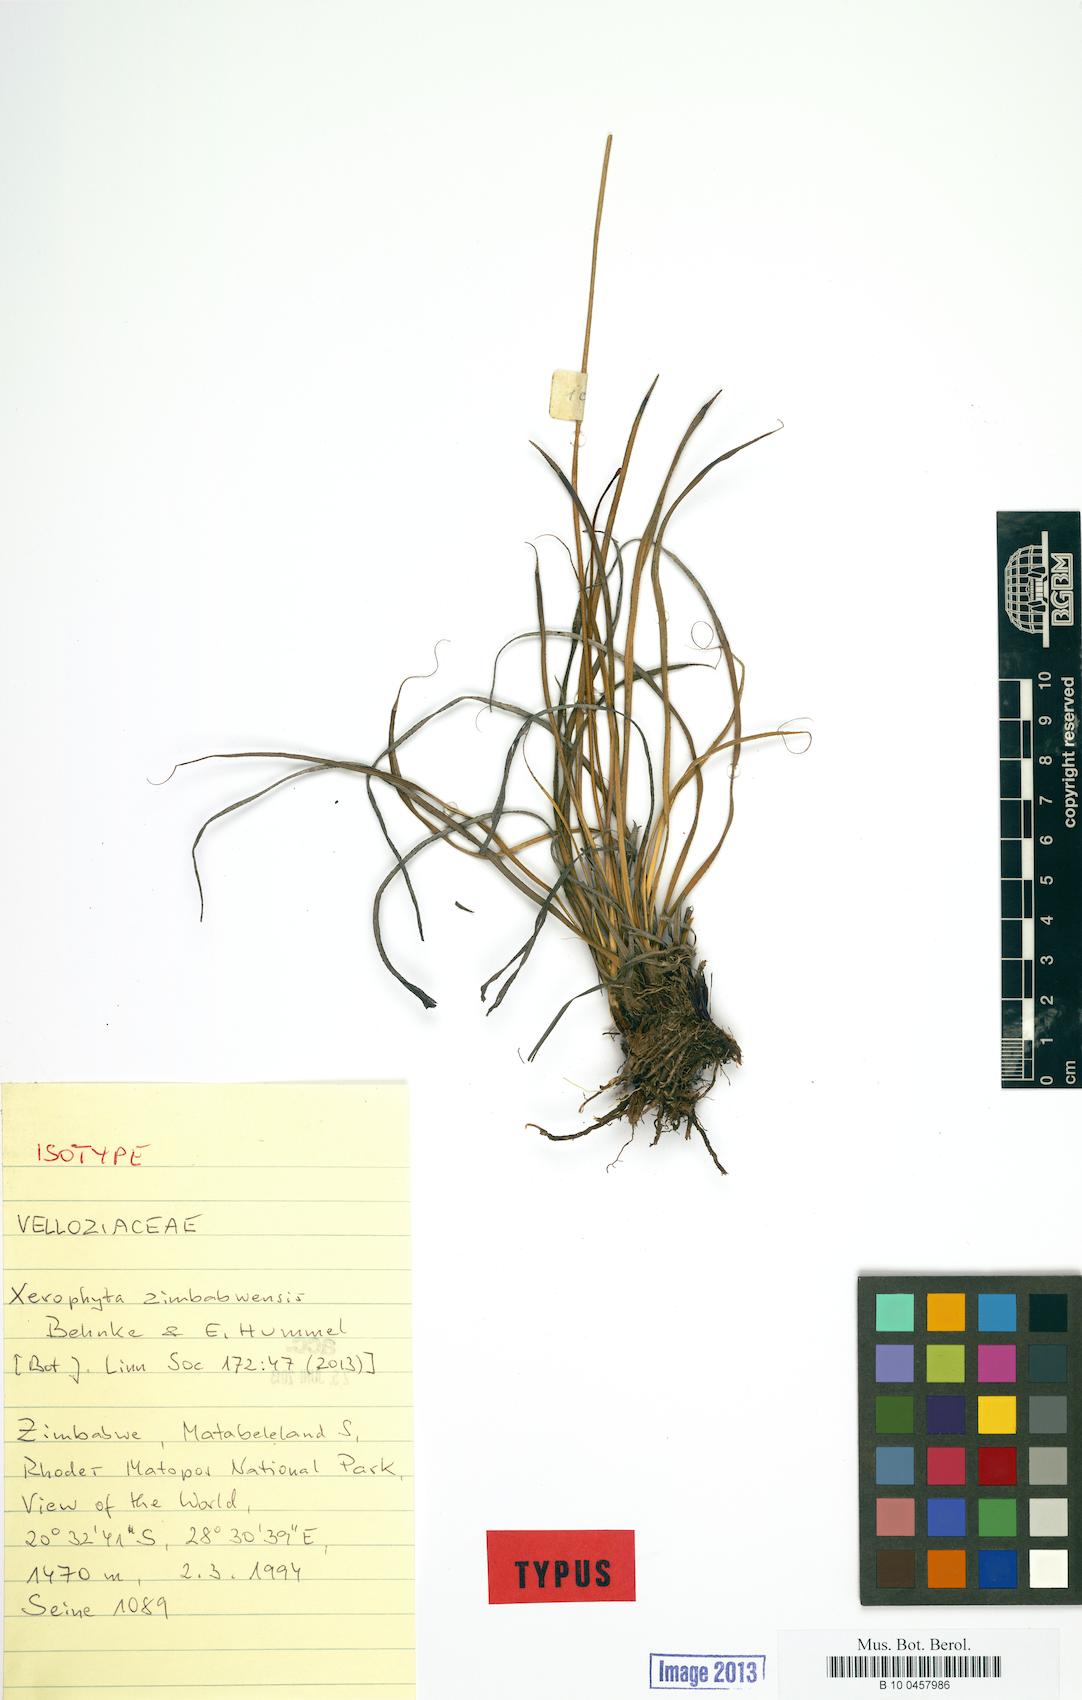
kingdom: Plantae
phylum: Tracheophyta
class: Liliopsida
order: Pandanales
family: Velloziaceae
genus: Xerophyta
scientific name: Xerophyta zimbabwensis
